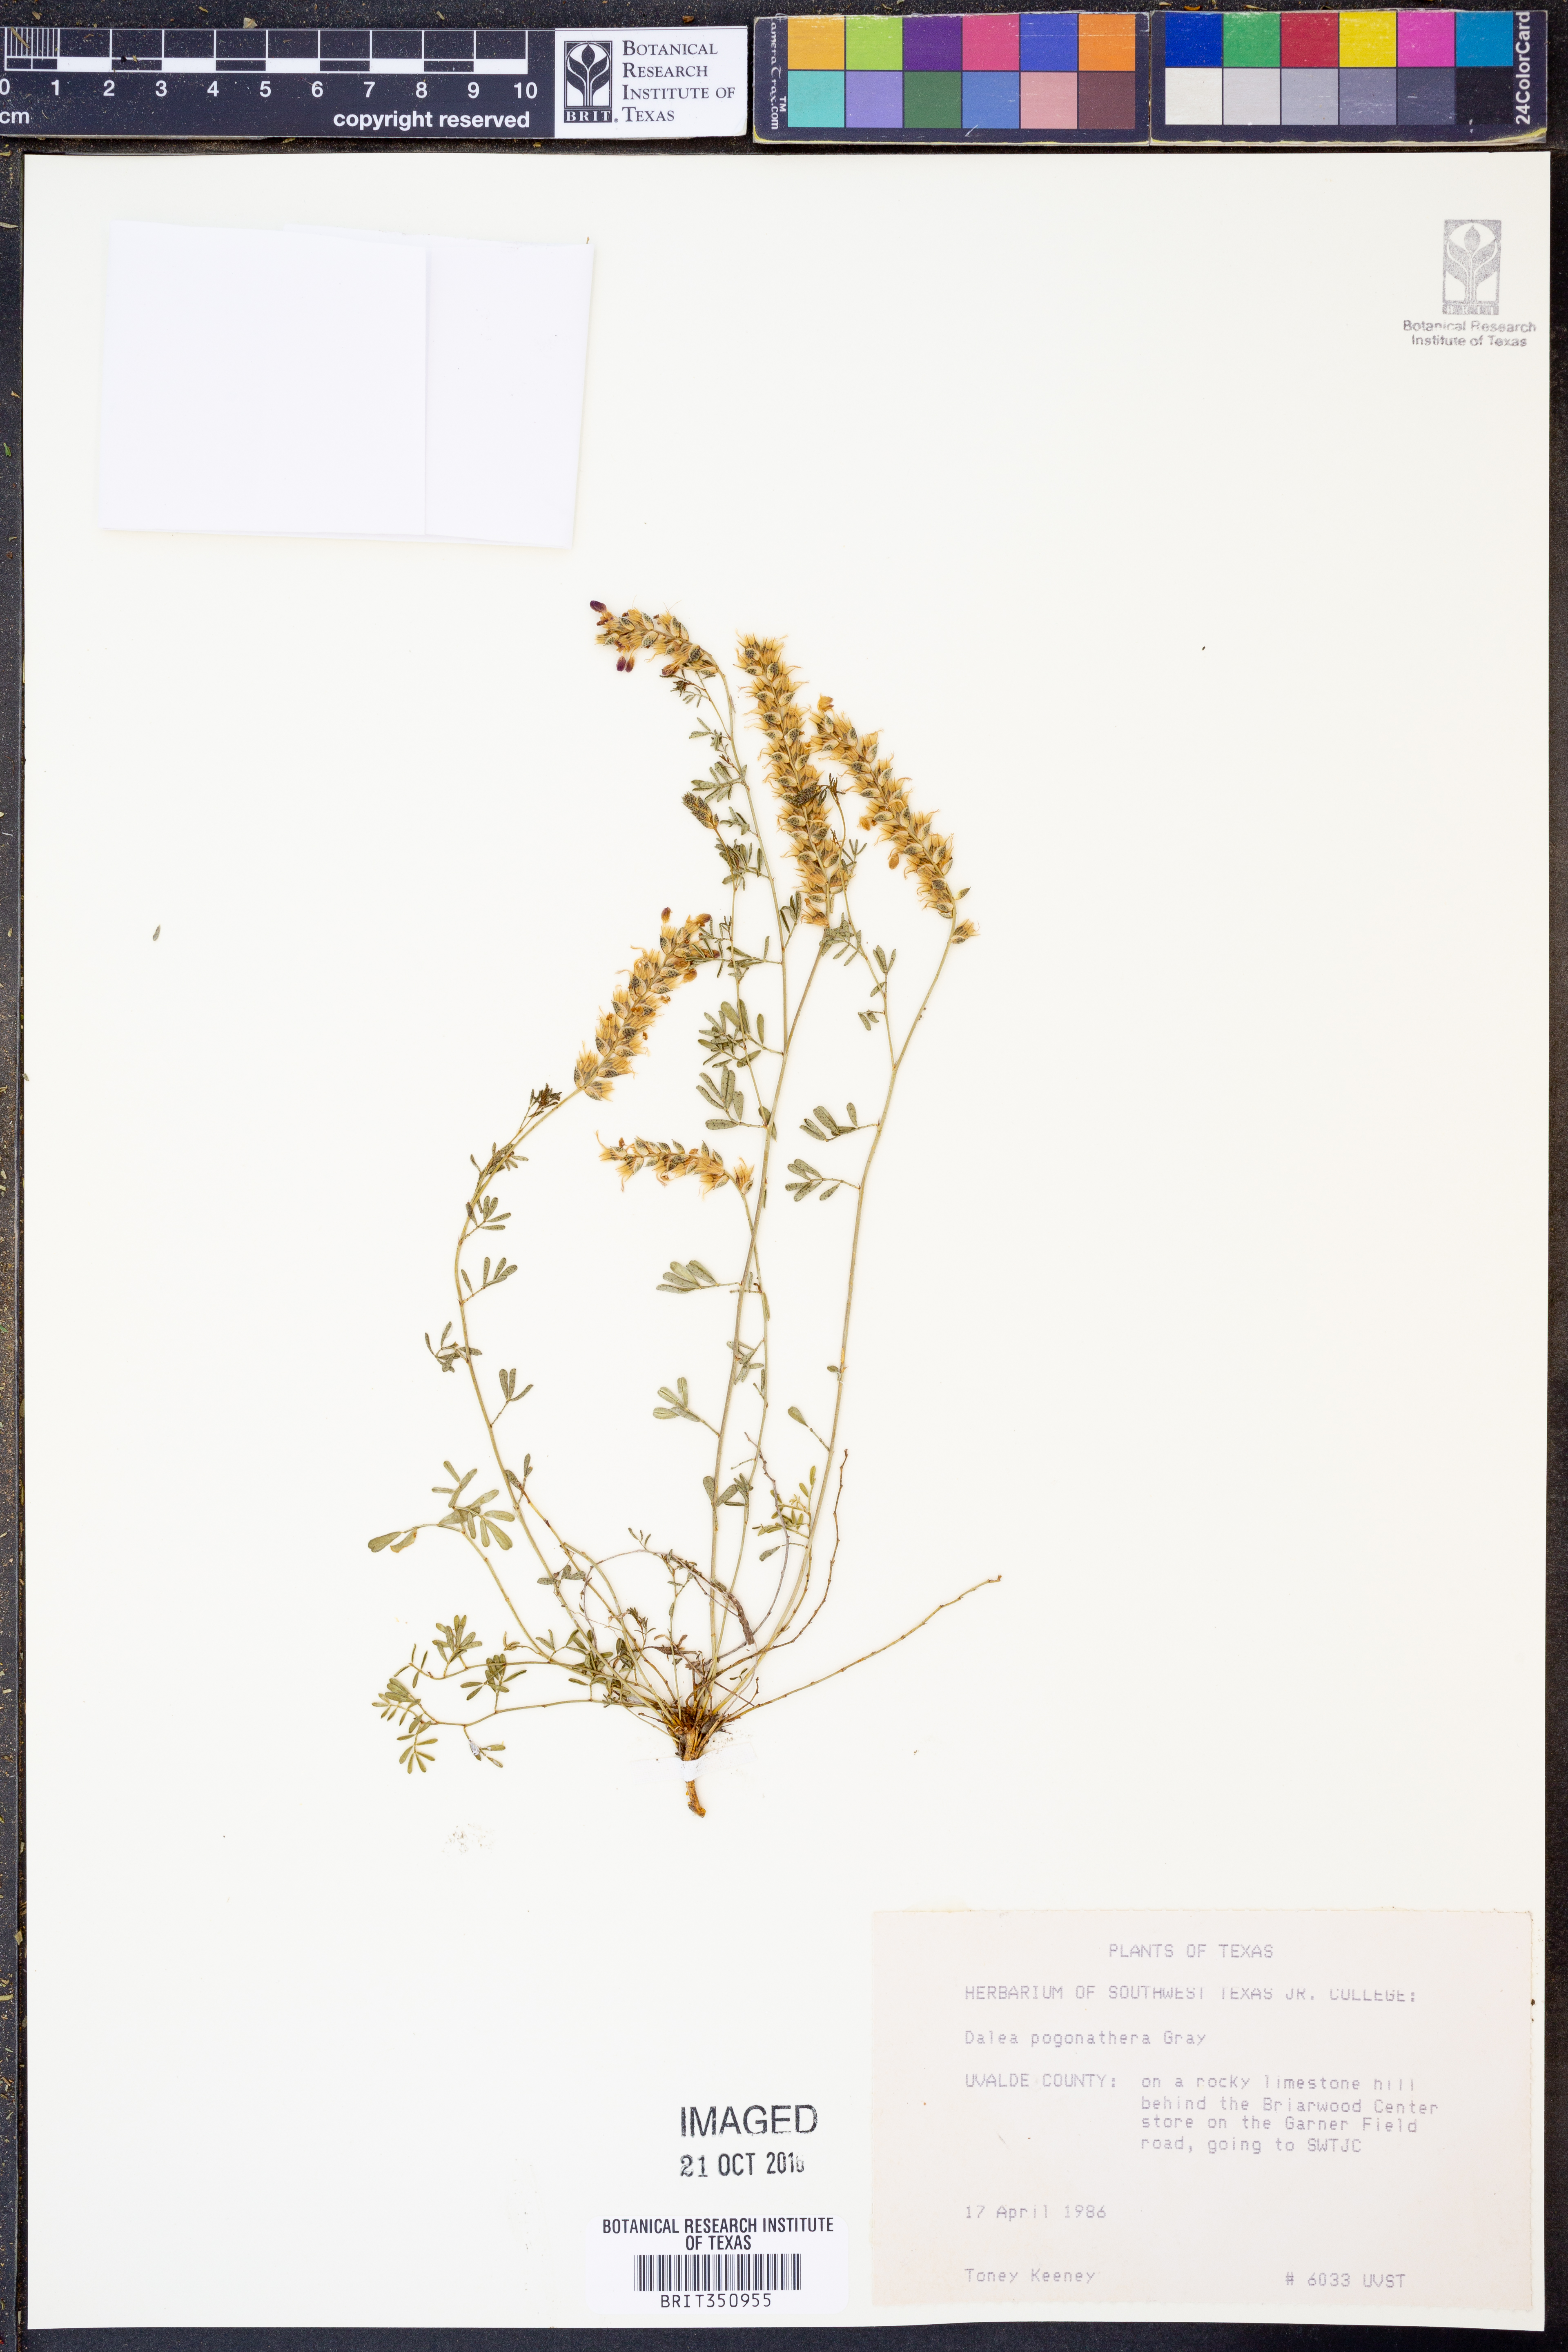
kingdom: Plantae
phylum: Tracheophyta
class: Magnoliopsida
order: Fabales
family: Fabaceae
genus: Dalea
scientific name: Dalea pogonathera
